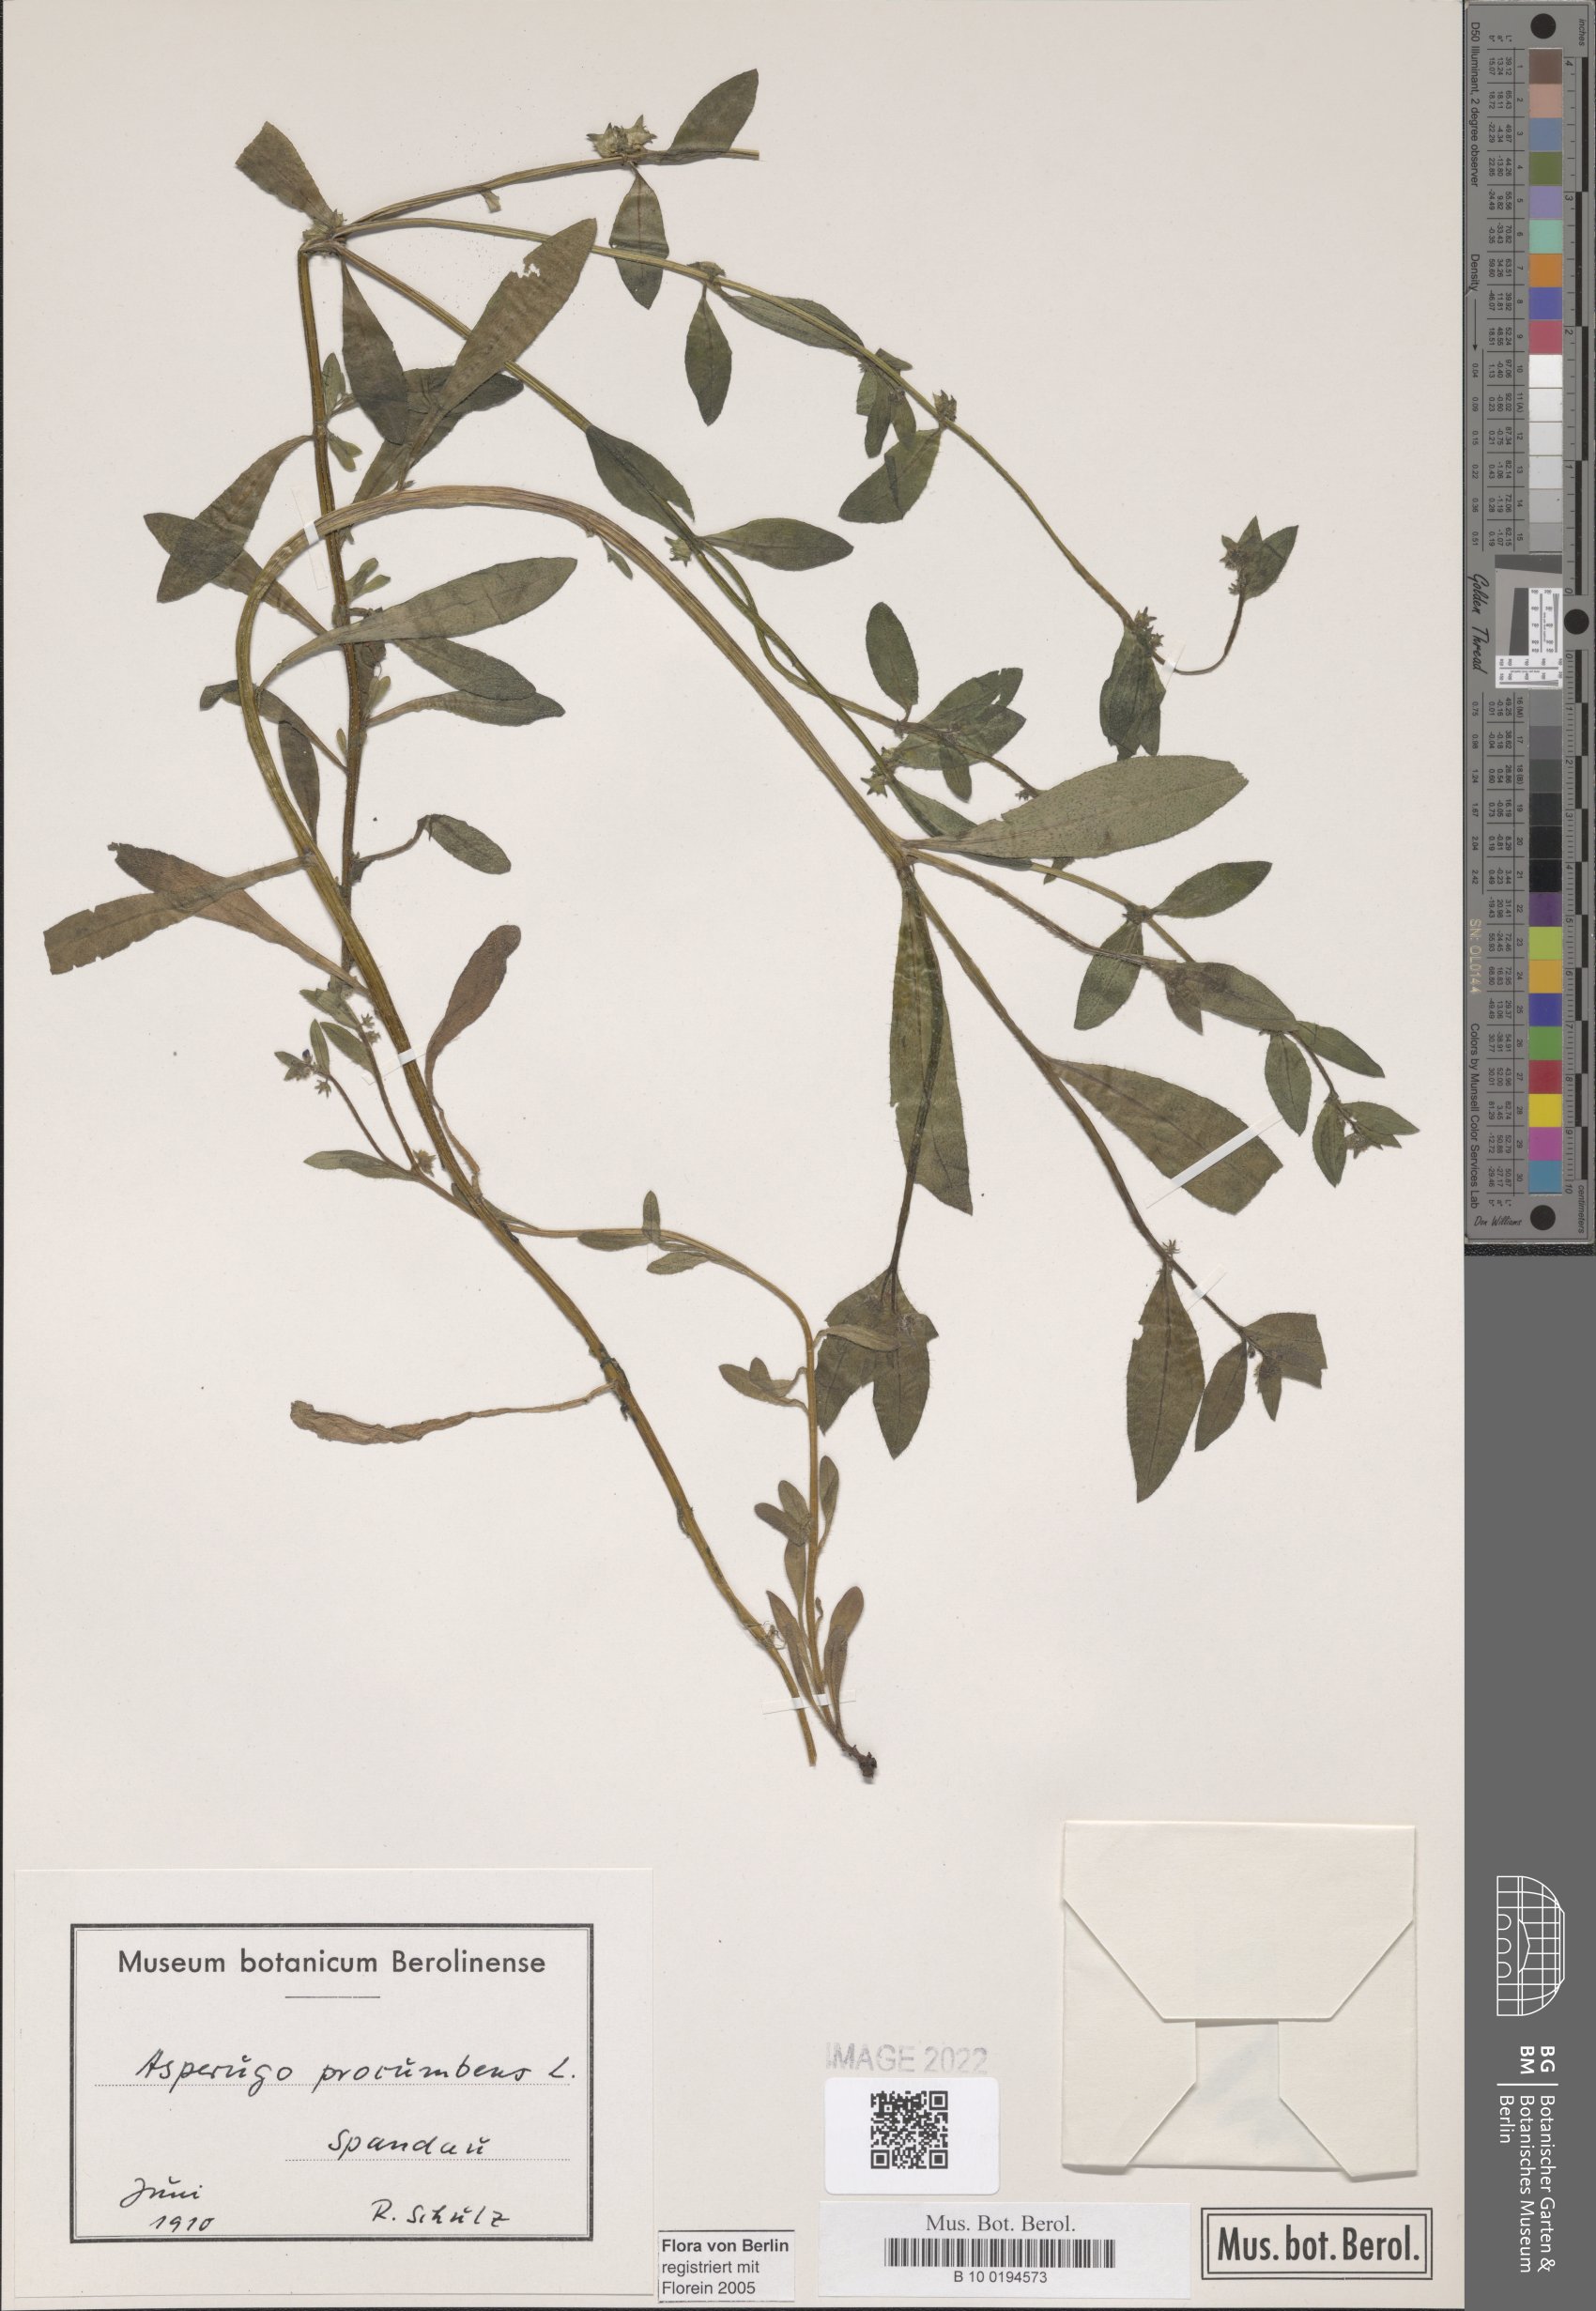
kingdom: Plantae
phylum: Tracheophyta
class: Magnoliopsida
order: Boraginales
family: Boraginaceae
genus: Asperugo
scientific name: Asperugo procumbens
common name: Madwort
